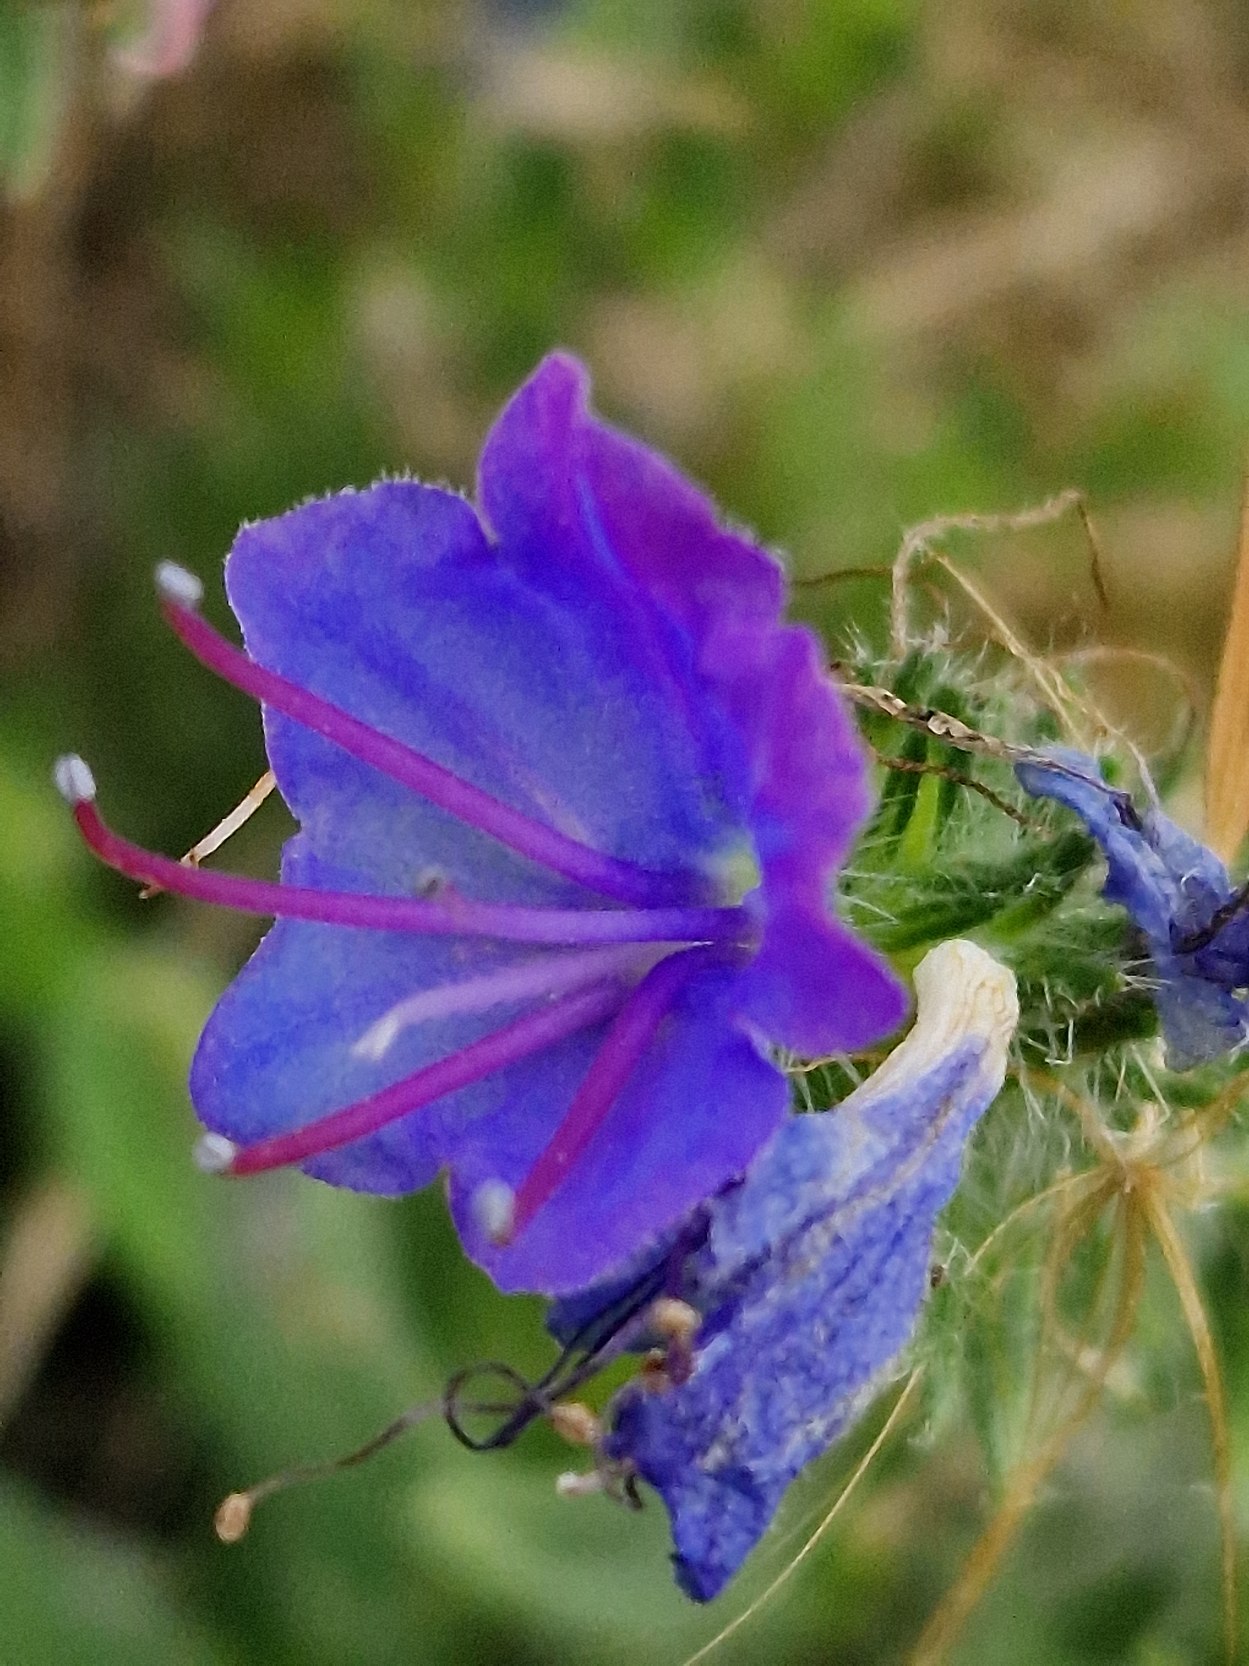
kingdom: Plantae
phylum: Tracheophyta
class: Magnoliopsida
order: Boraginales
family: Boraginaceae
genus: Echium
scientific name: Echium vulgare
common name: Slangehoved
